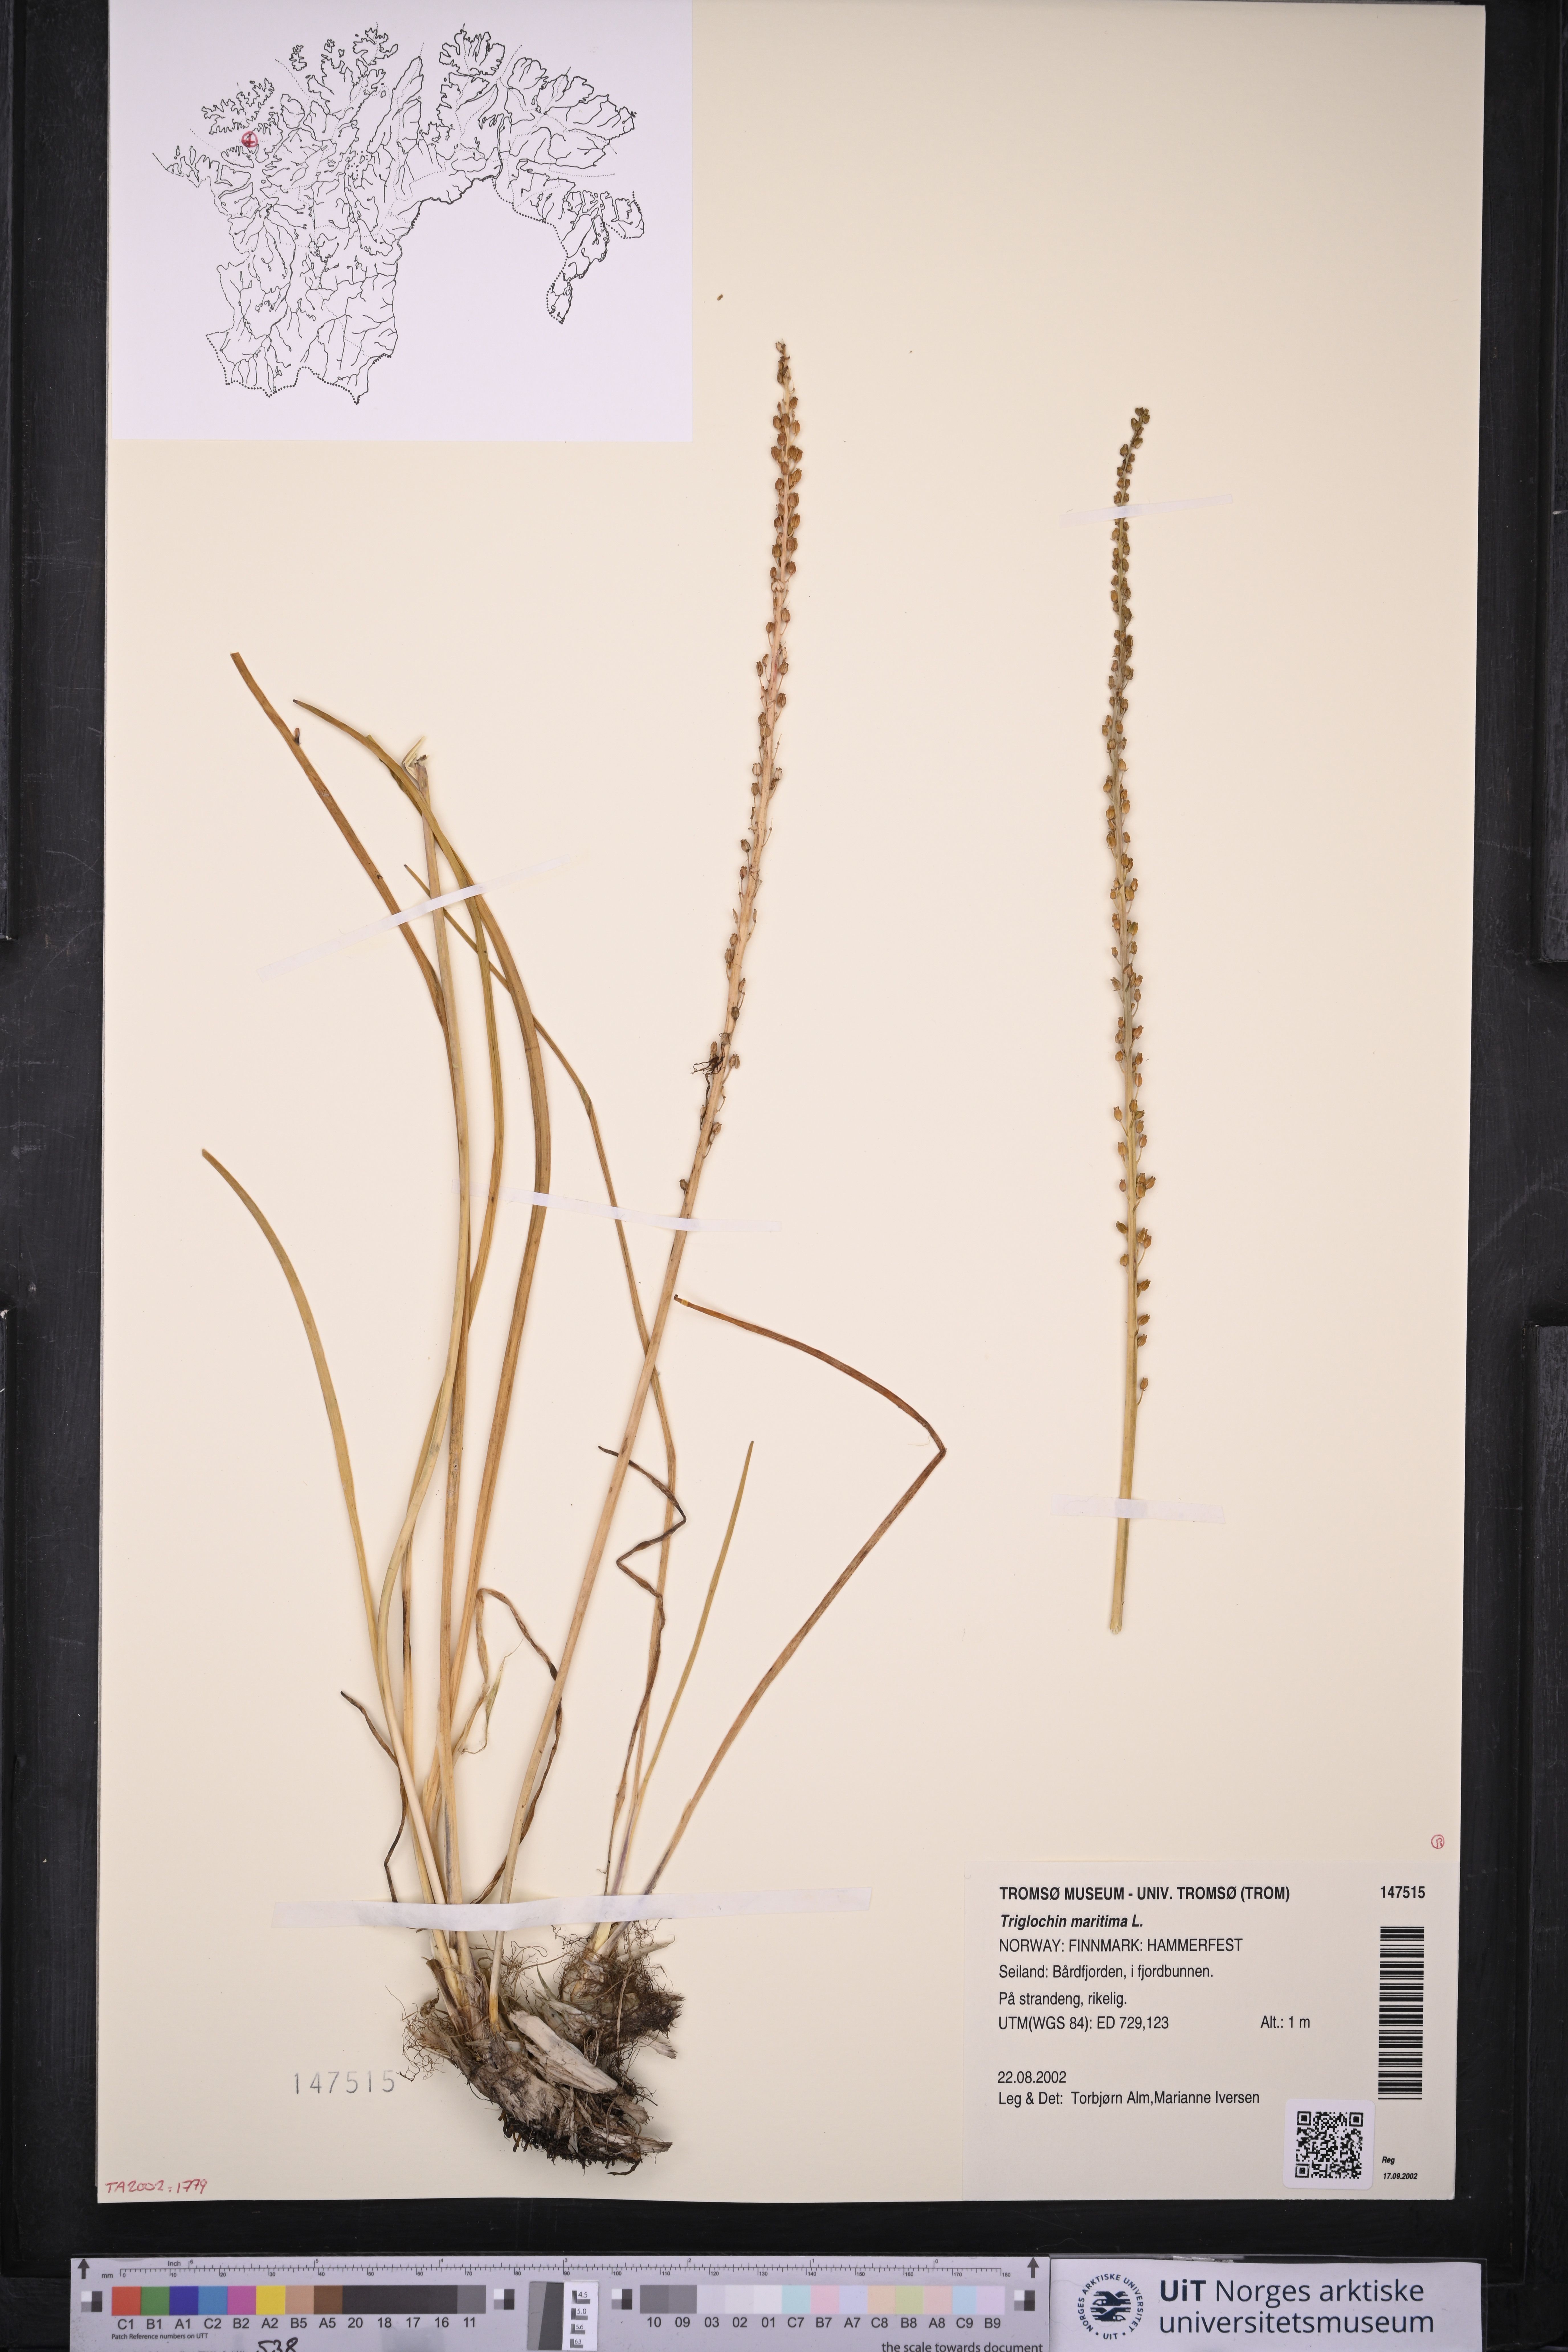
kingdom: Plantae
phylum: Tracheophyta
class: Liliopsida
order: Alismatales
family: Juncaginaceae
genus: Triglochin
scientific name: Triglochin maritima
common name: Sea arrowgrass
